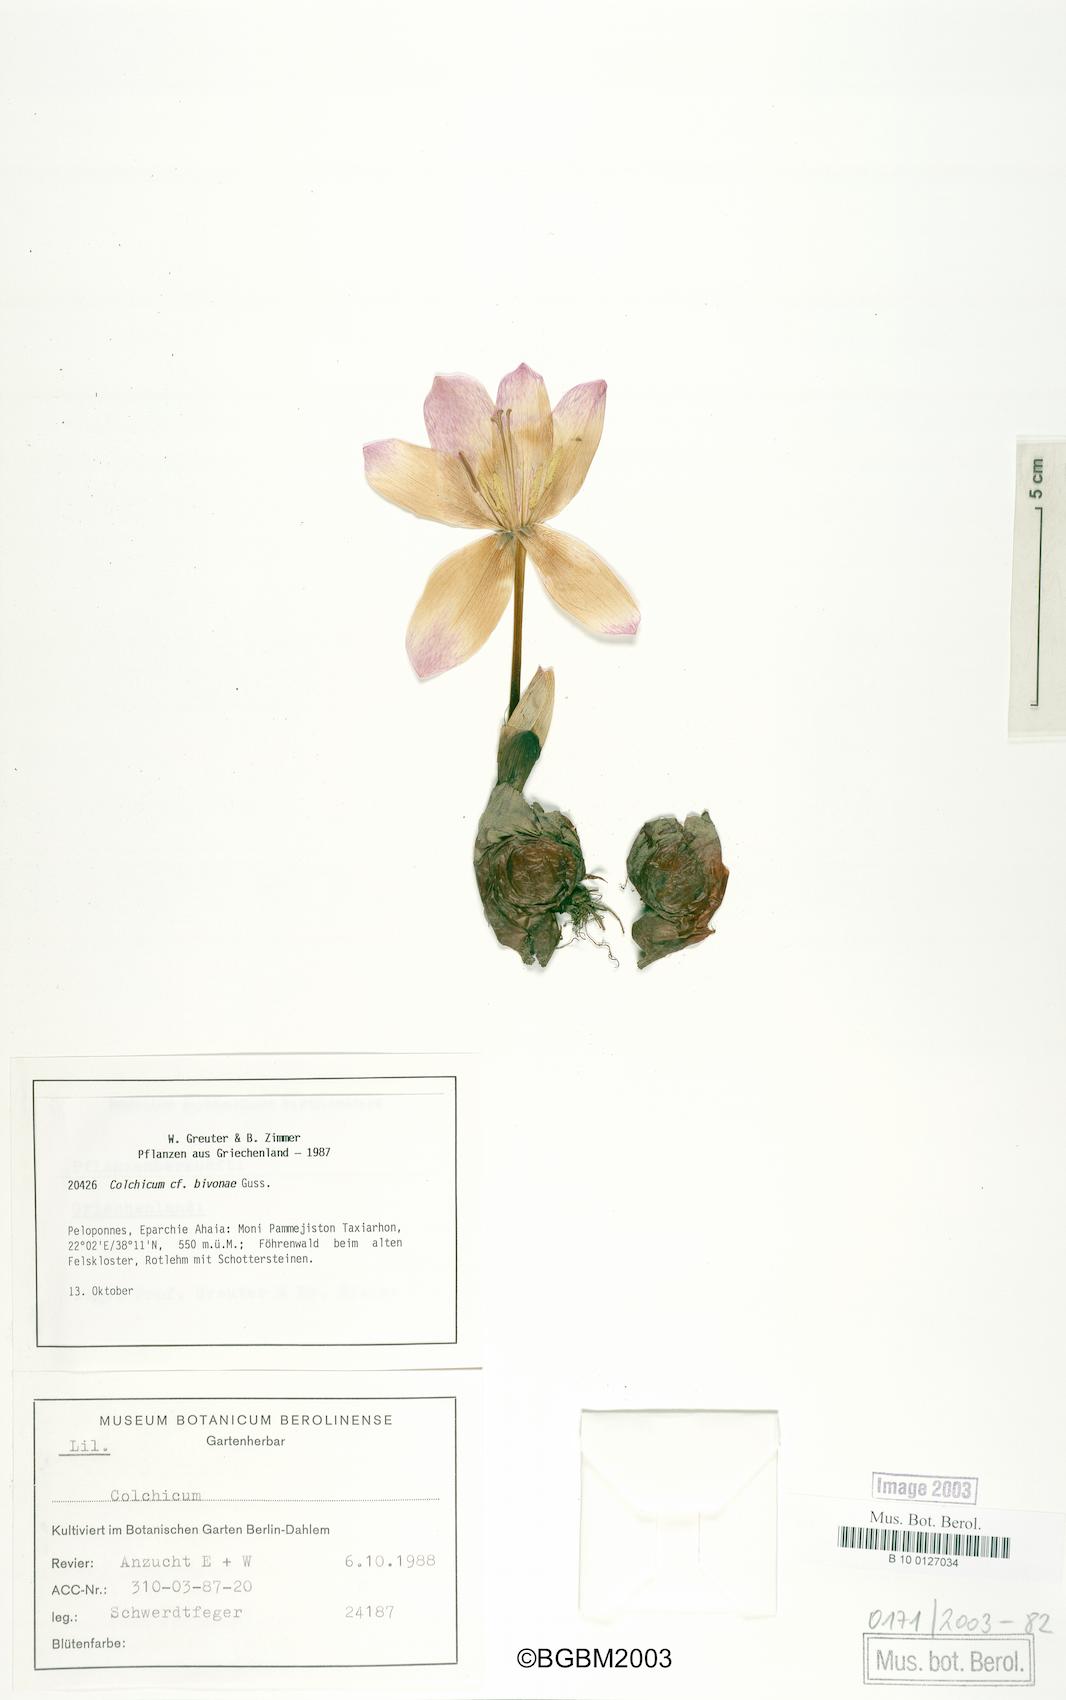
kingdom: Plantae
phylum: Tracheophyta
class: Liliopsida
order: Liliales
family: Colchicaceae
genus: Colchicum
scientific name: Colchicum bivonae
